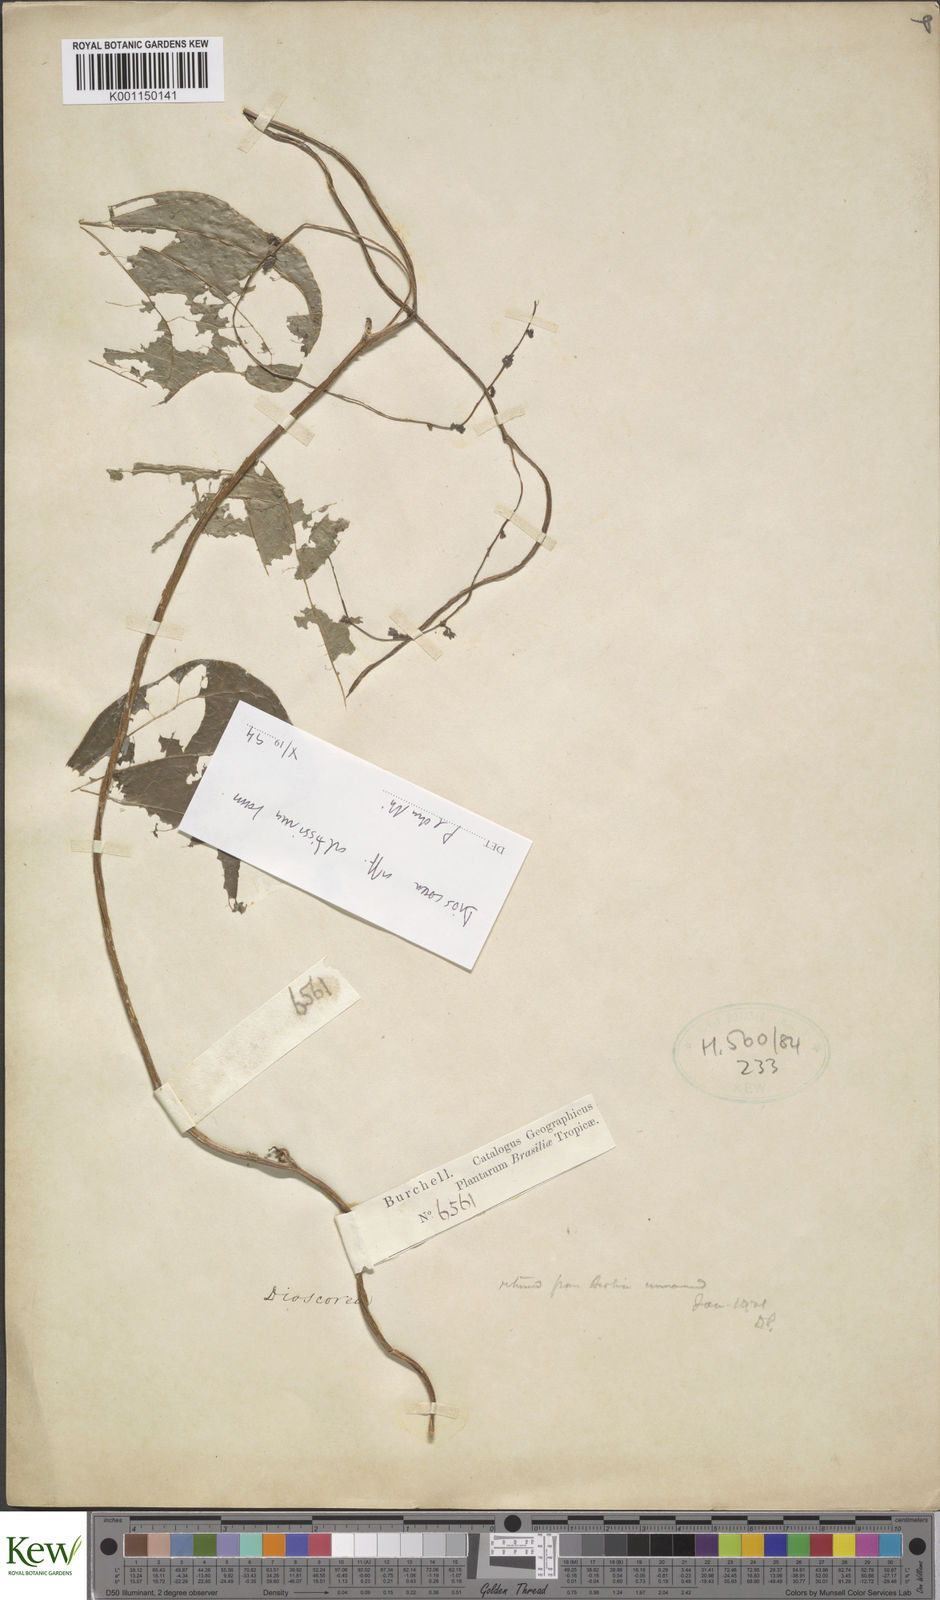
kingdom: Plantae
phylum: Tracheophyta
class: Liliopsida
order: Dioscoreales
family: Dioscoreaceae
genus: Dioscorea
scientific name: Dioscorea cayenensis
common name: Attoto yam
